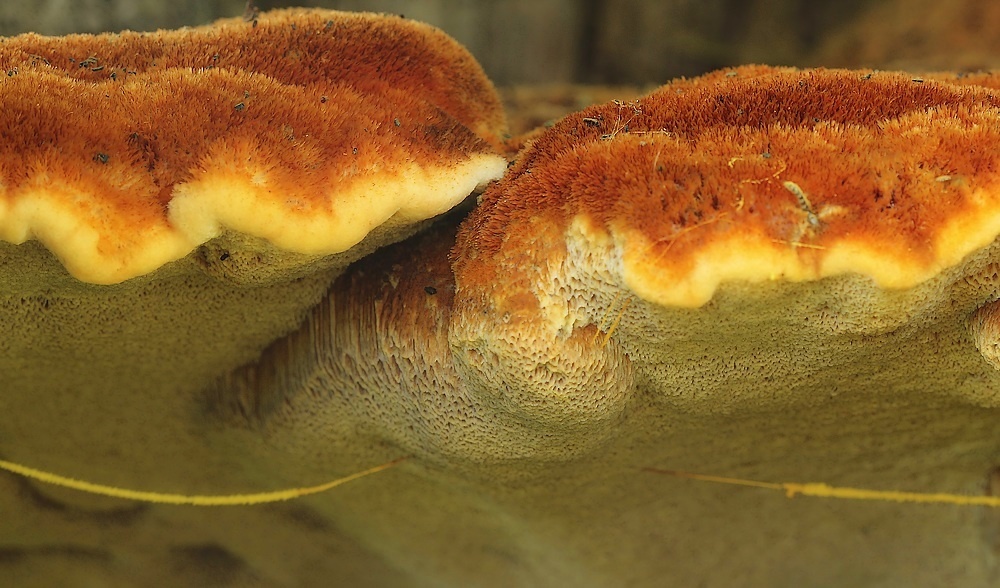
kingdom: Fungi
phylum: Basidiomycota
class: Agaricomycetes
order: Hymenochaetales
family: Hymenochaetaceae
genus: Inonotus
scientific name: Inonotus hispidus
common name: børstehåret spejlporesvamp
